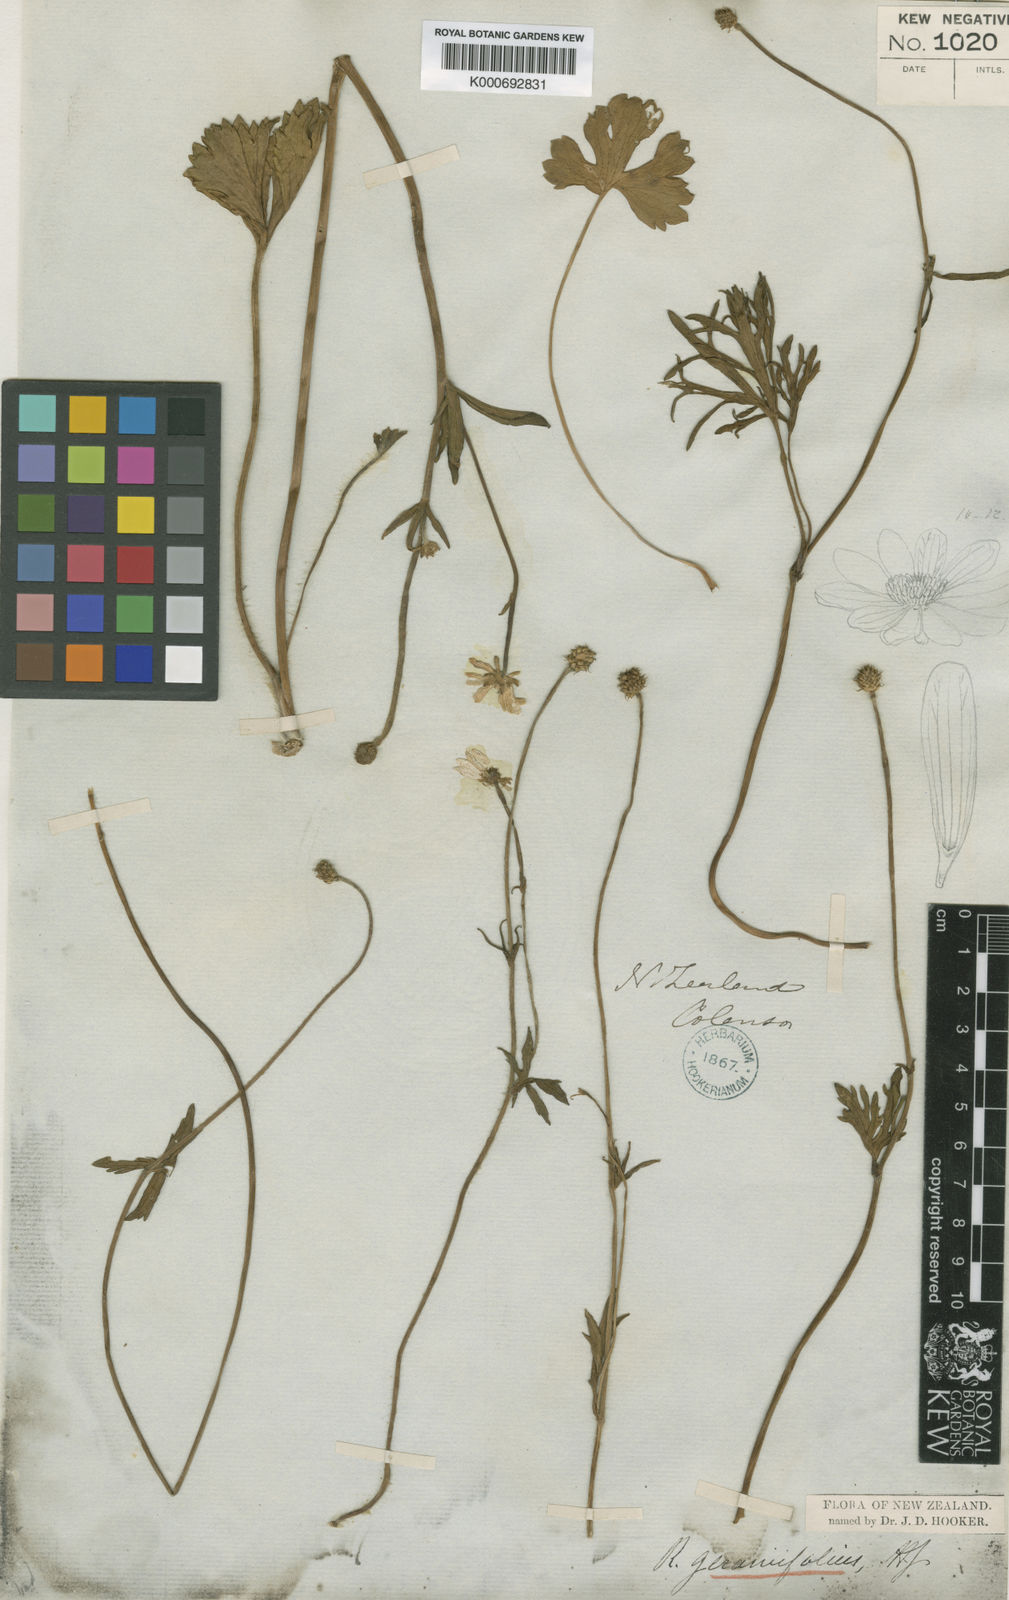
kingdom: Plantae
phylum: Tracheophyta
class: Magnoliopsida
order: Ranunculales
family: Ranunculaceae
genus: Ranunculus
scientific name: Ranunculus verticillatus
